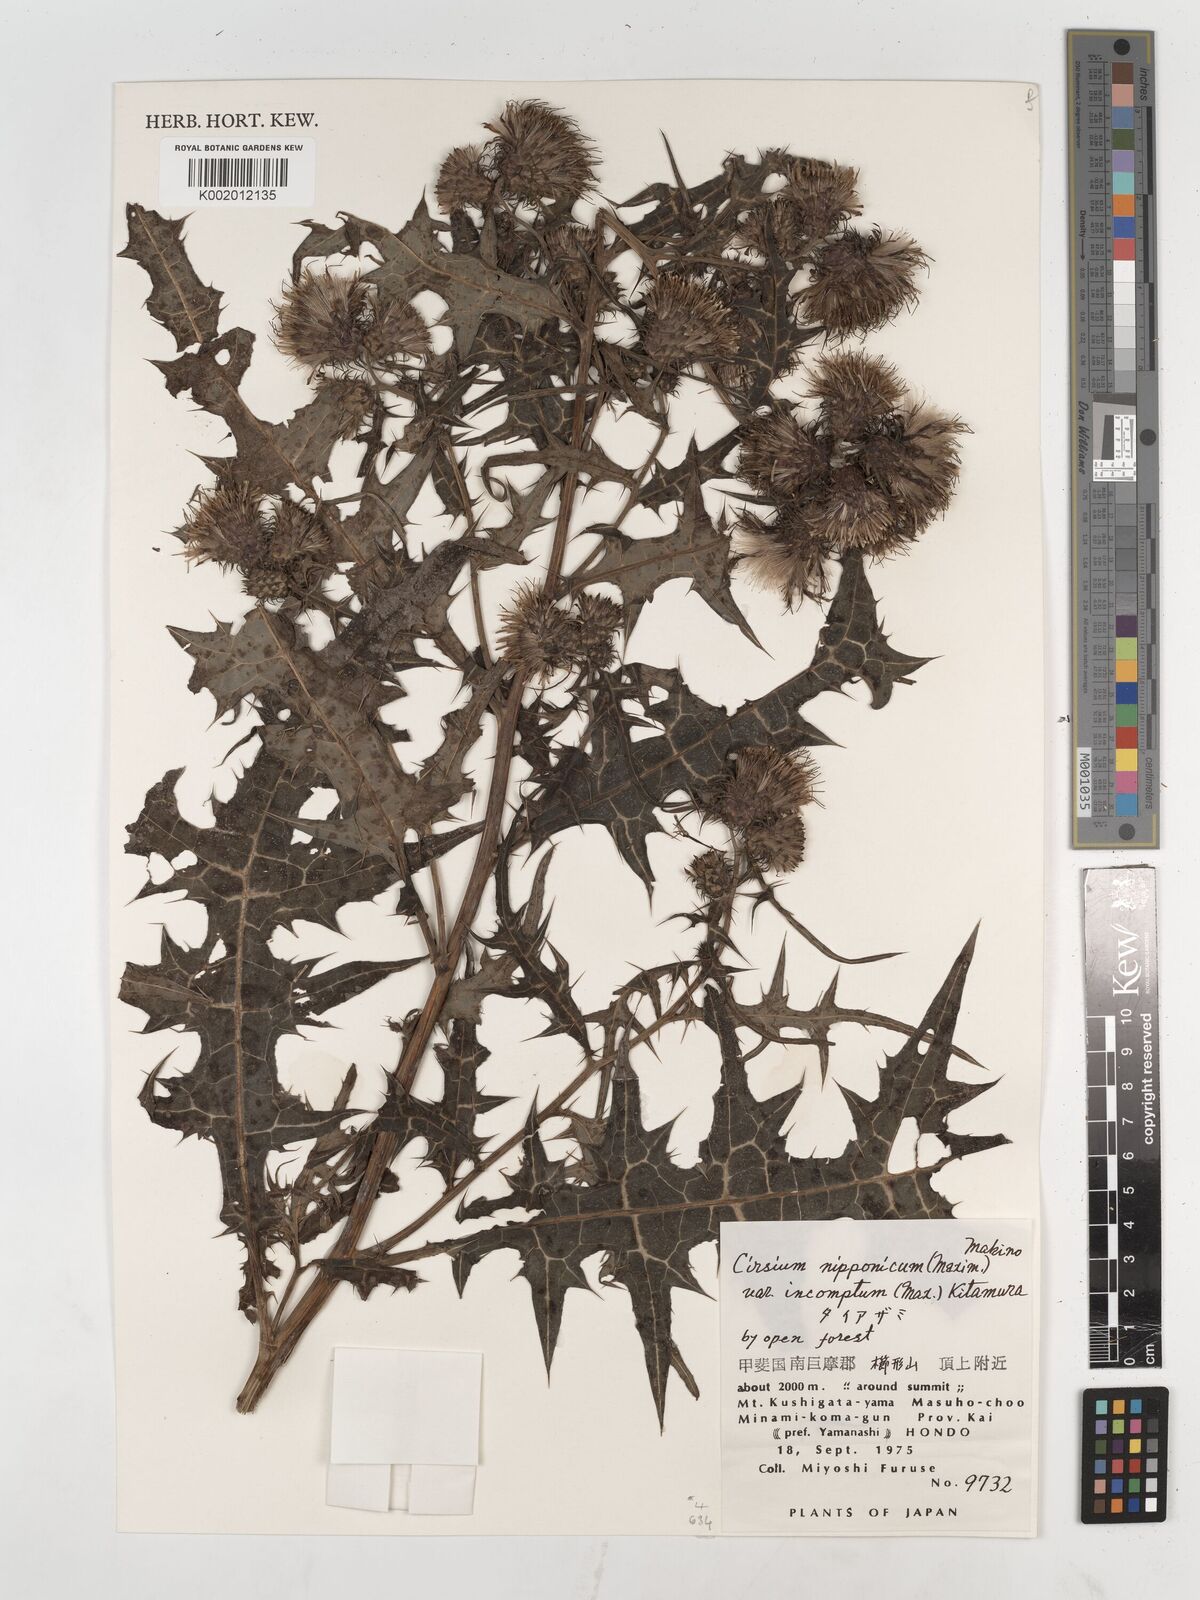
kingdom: Plantae
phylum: Tracheophyta
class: Magnoliopsida
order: Asterales
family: Asteraceae
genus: Cirsium
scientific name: Cirsium nipponicum
